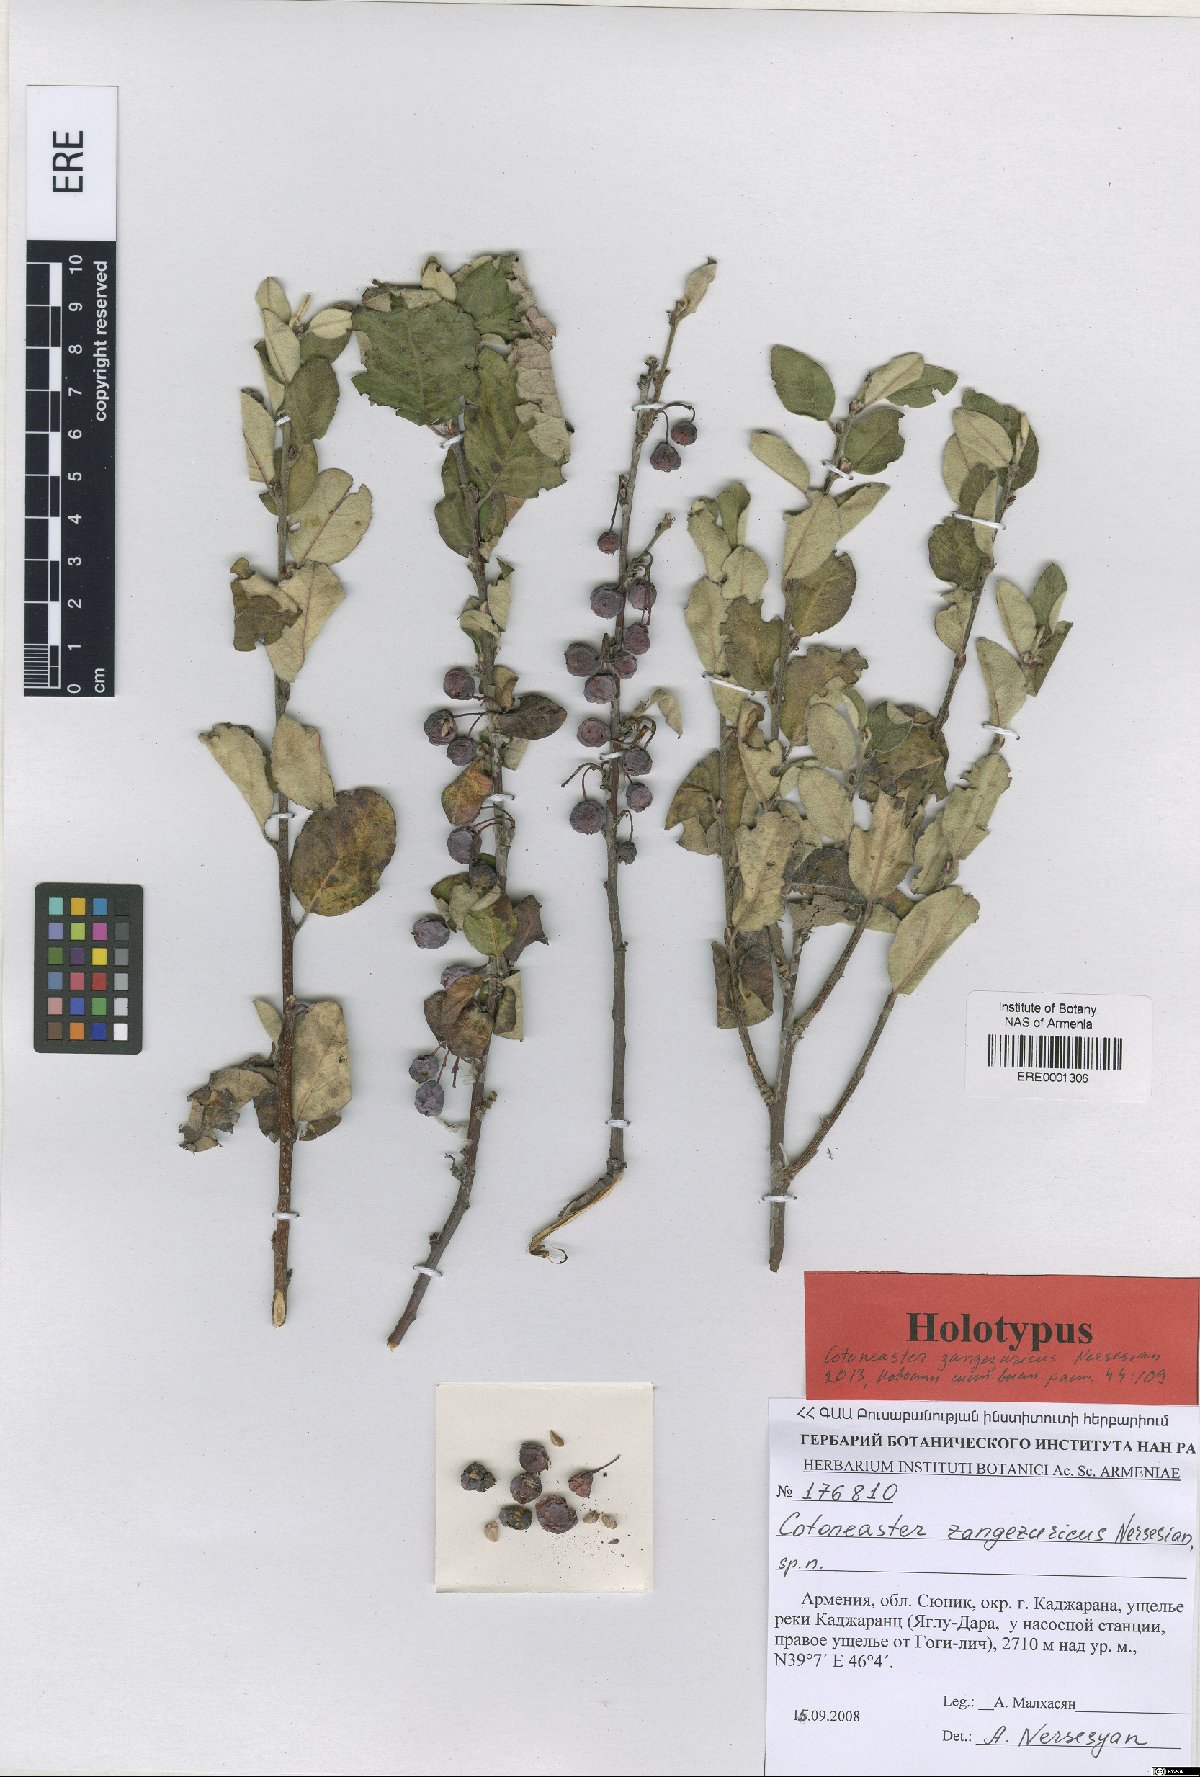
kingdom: Plantae
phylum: Tracheophyta
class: Magnoliopsida
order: Rosales
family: Rosaceae
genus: Cotoneaster
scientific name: Cotoneaster zangezuricus
